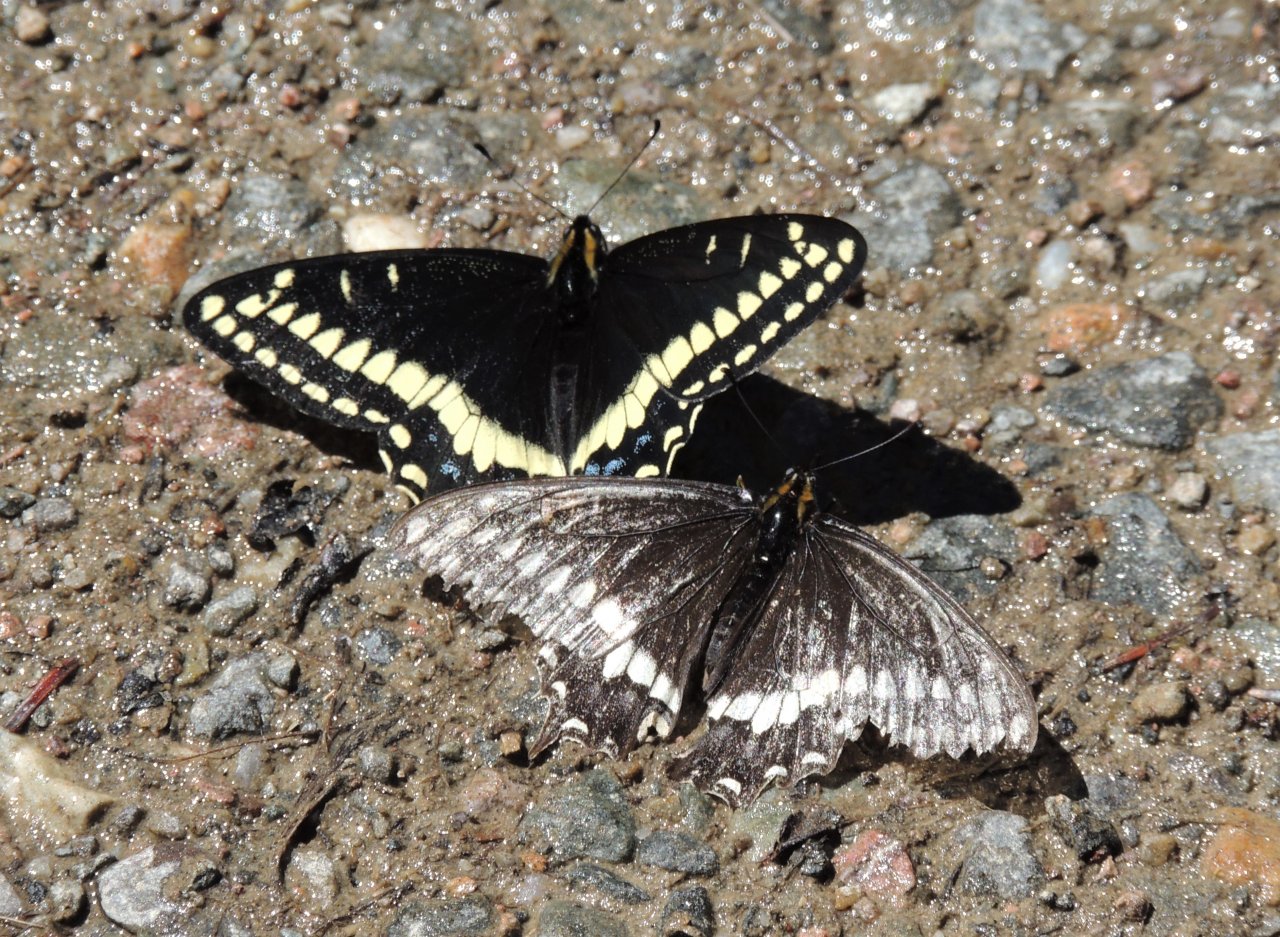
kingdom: Animalia
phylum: Arthropoda
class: Insecta
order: Lepidoptera
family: Papilionidae
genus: Papilio
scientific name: Papilio indra
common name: Indra Swallowtail
